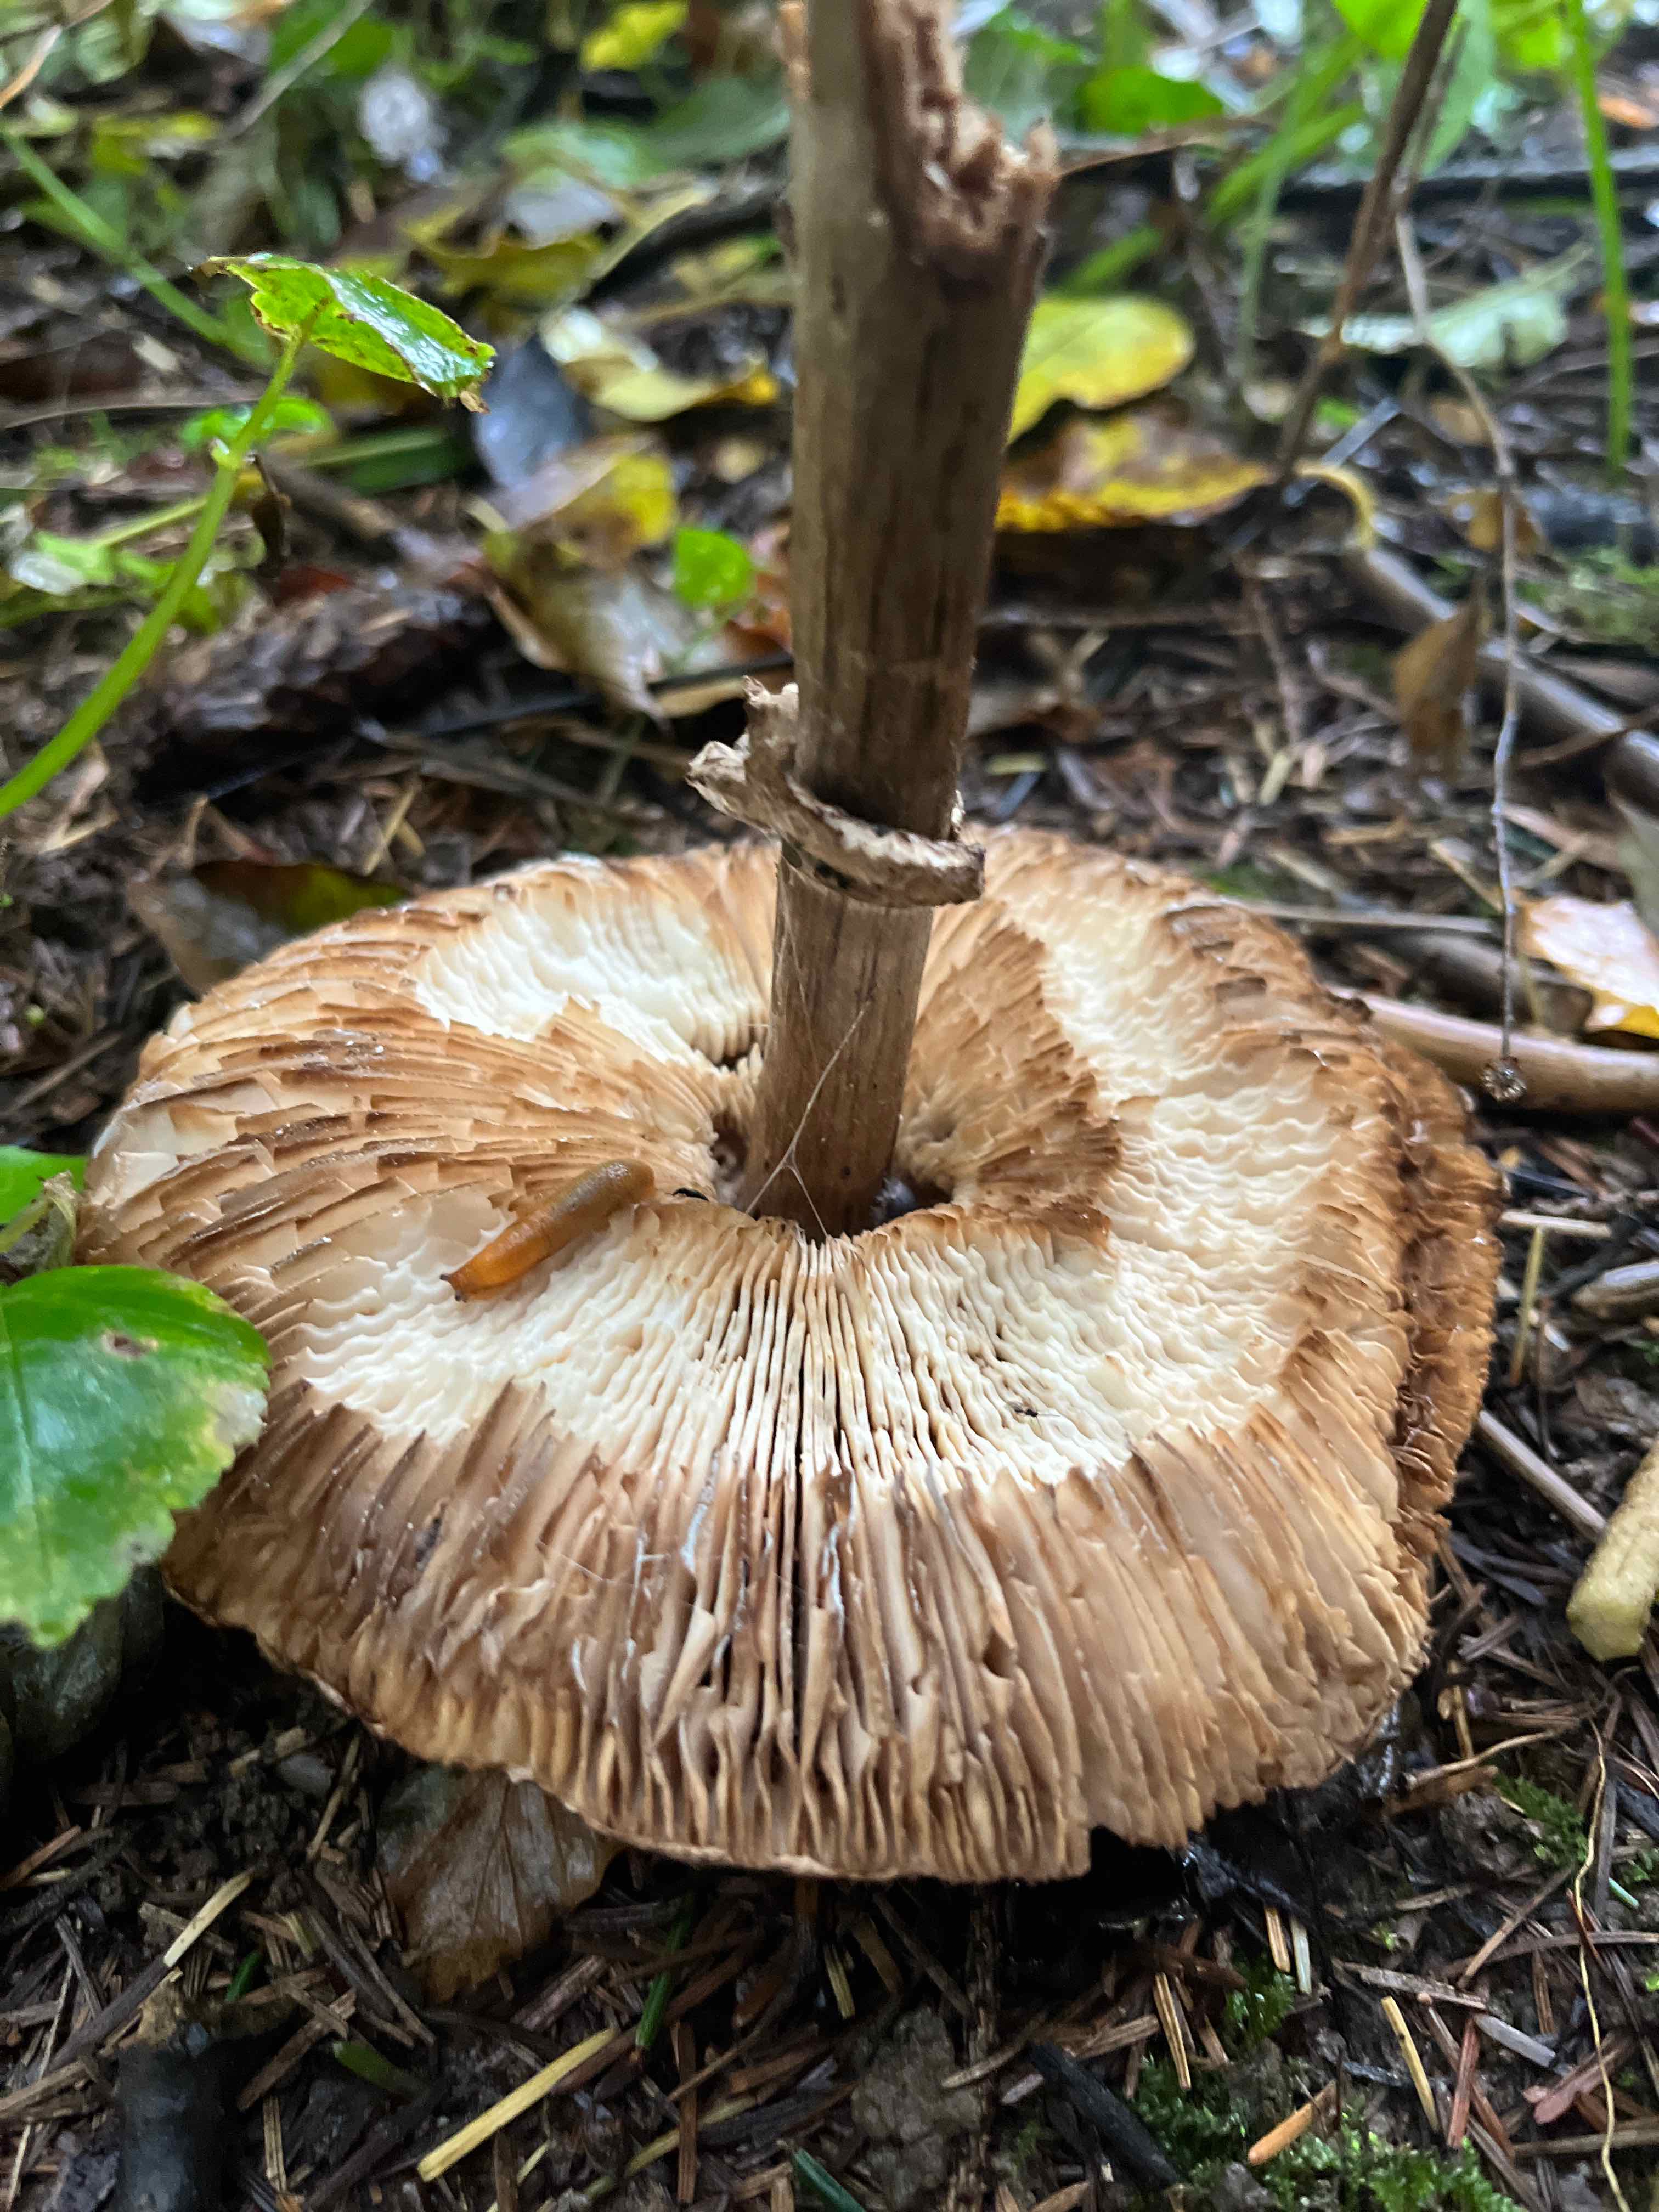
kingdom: Fungi
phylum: Basidiomycota
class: Agaricomycetes
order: Agaricales
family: Agaricaceae
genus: Chlorophyllum
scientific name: Chlorophyllum olivieri
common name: almindelig rabarberhat
